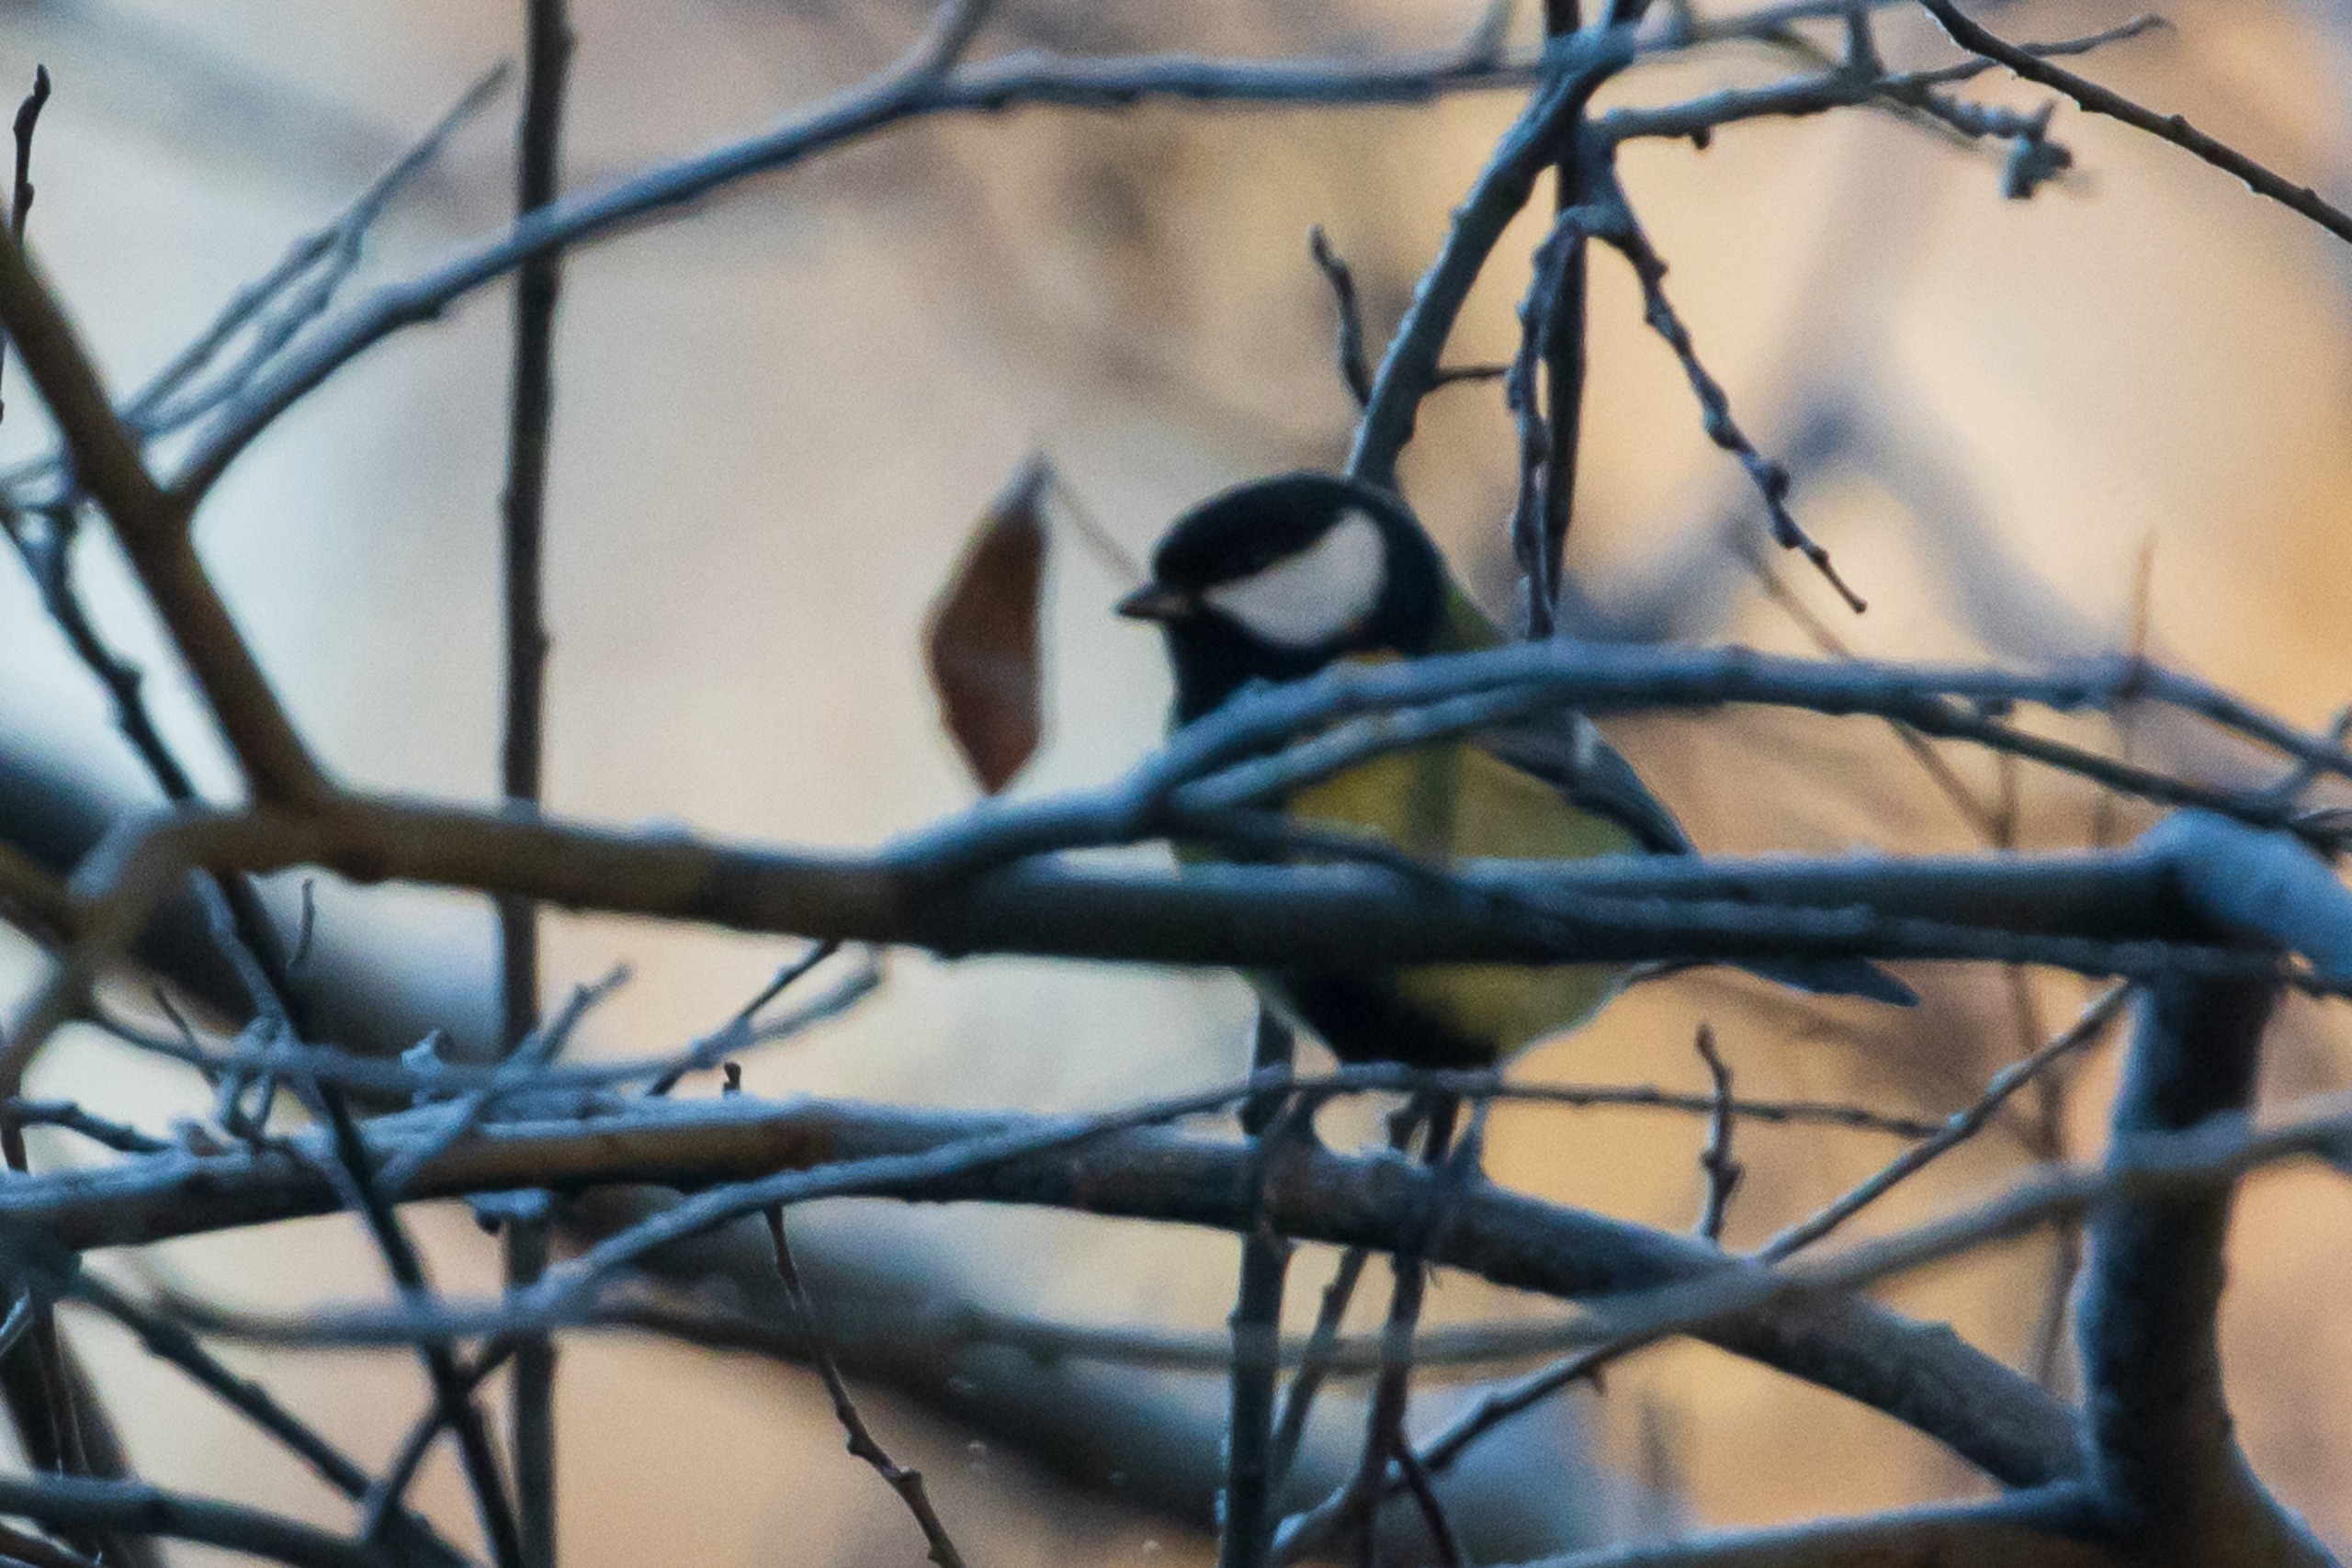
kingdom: Animalia
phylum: Chordata
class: Aves
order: Passeriformes
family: Paridae
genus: Parus
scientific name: Parus major
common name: Musvit
